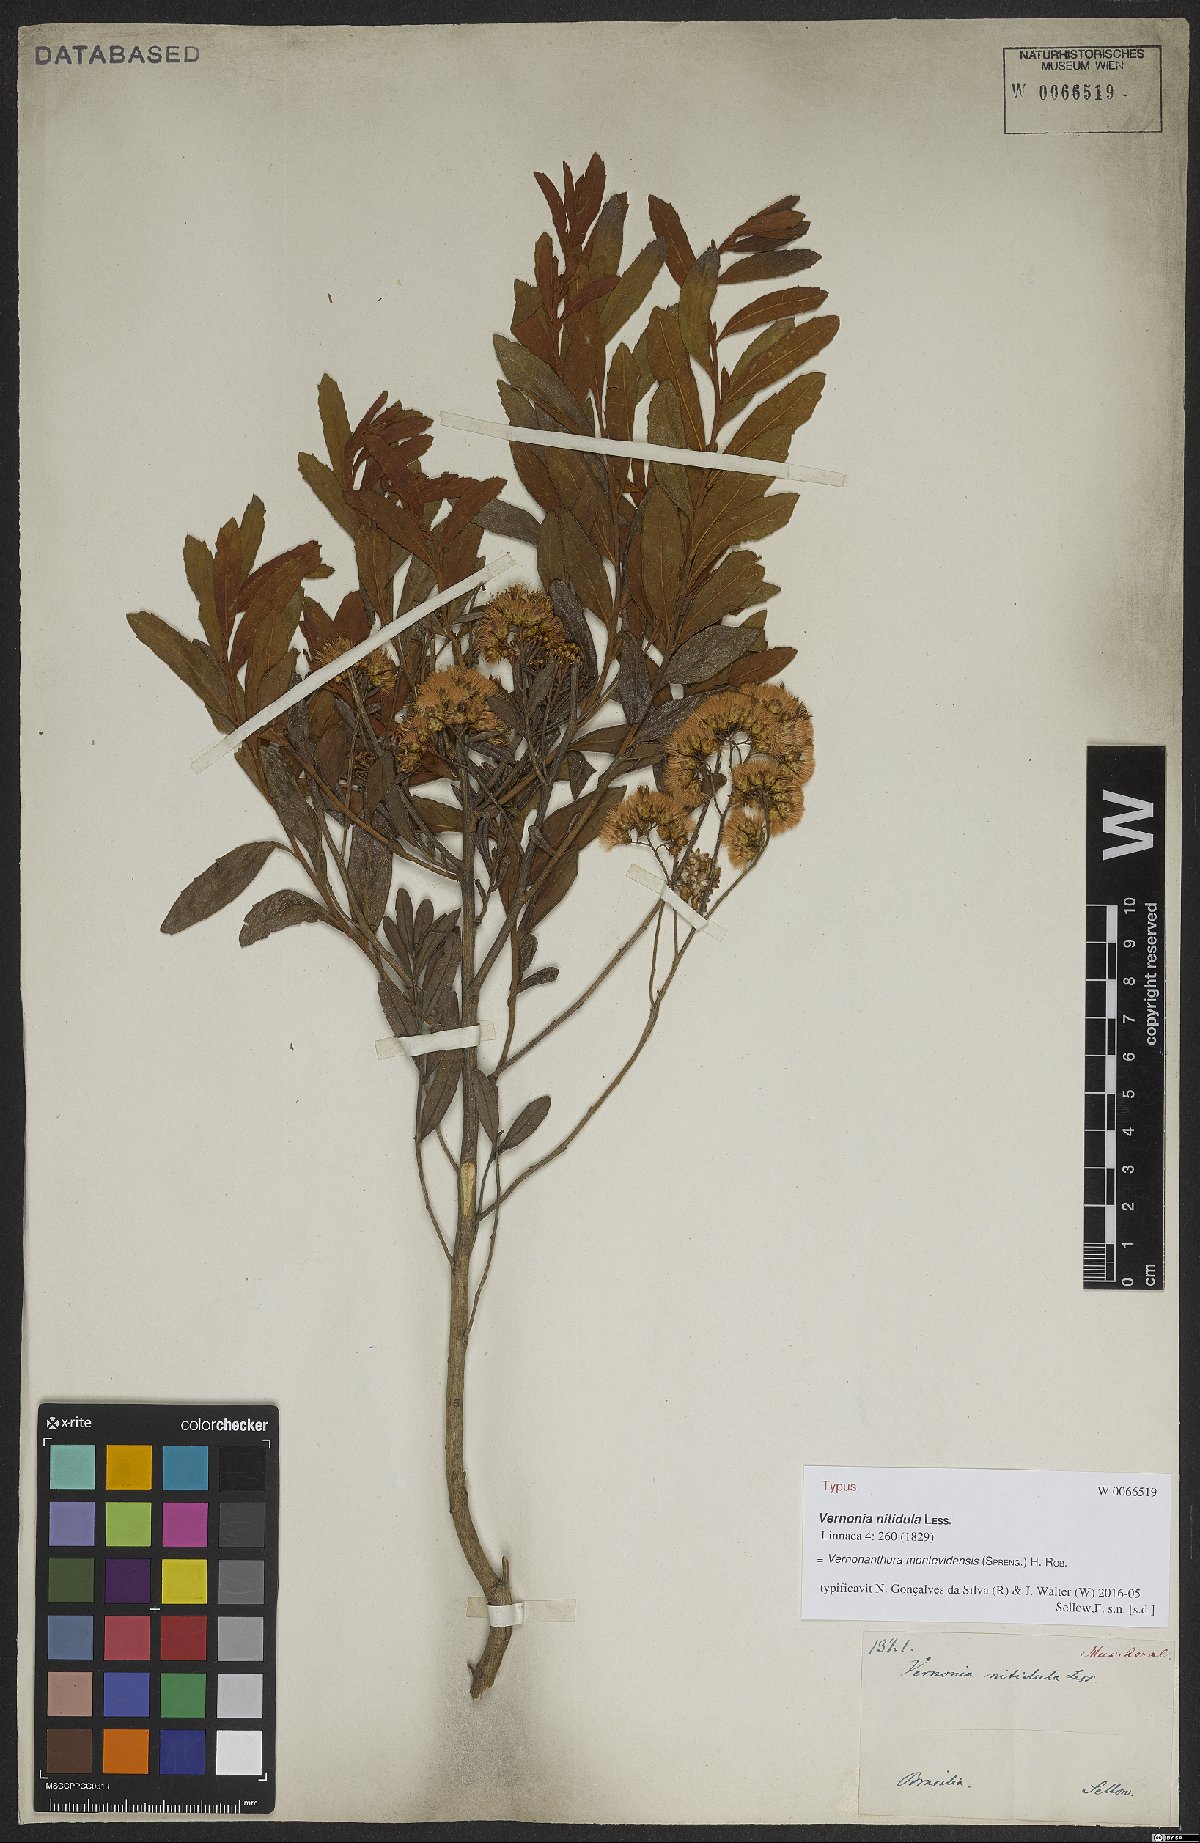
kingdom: Plantae
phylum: Tracheophyta
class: Magnoliopsida
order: Asterales
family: Asteraceae
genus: Vernonanthura
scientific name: Vernonanthura montevidensis
